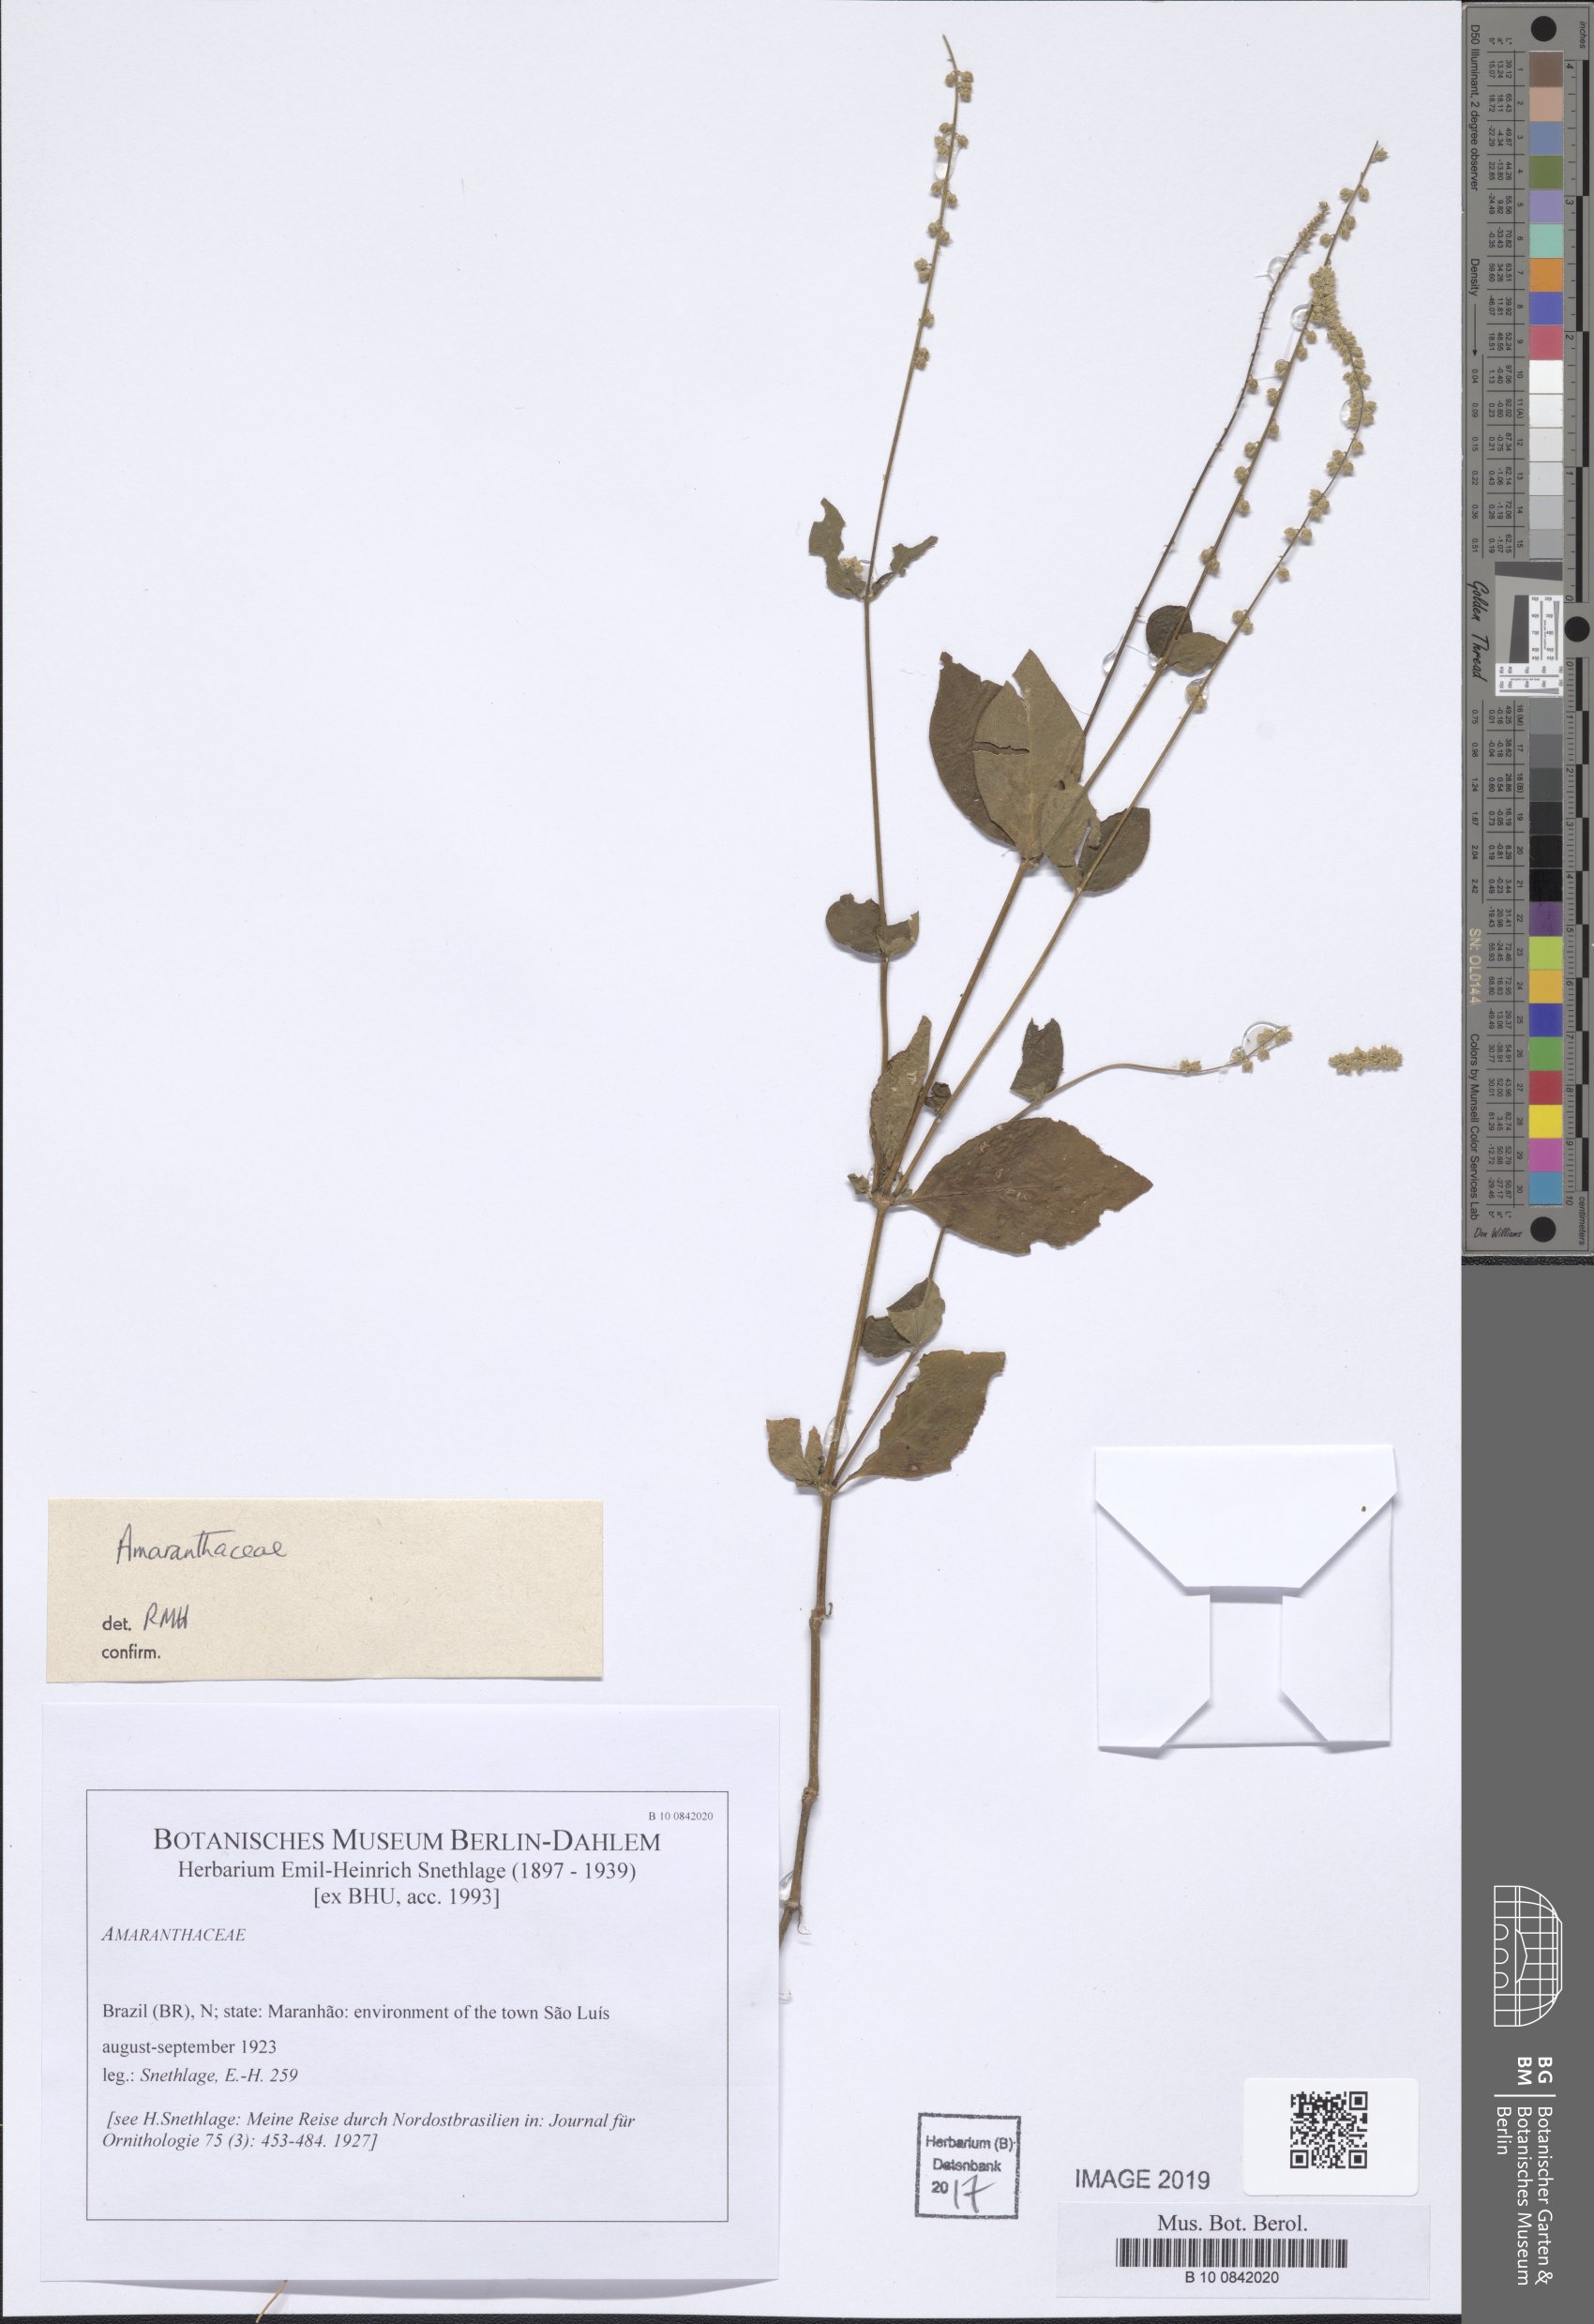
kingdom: Plantae
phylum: Tracheophyta
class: Magnoliopsida
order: Caryophyllales
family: Amaranthaceae
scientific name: Amaranthaceae
